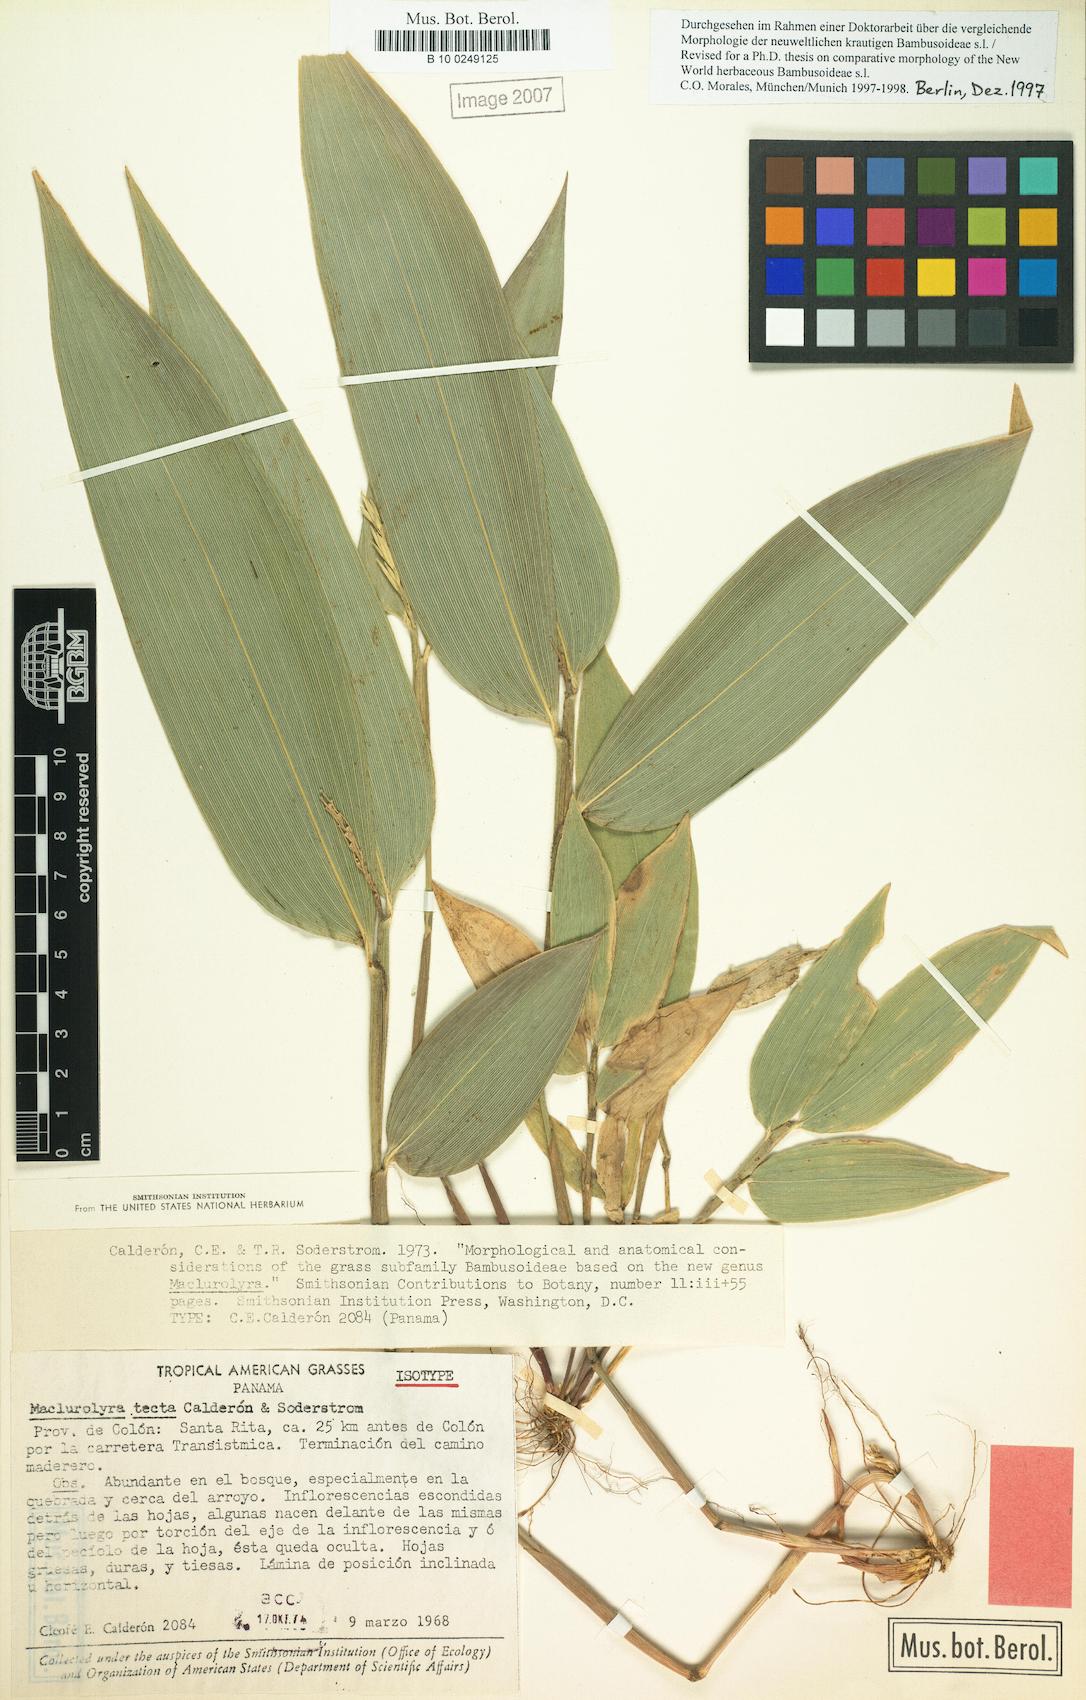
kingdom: Plantae
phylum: Tracheophyta
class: Liliopsida
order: Poales
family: Poaceae
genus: Maclurolyra
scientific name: Maclurolyra tecta
